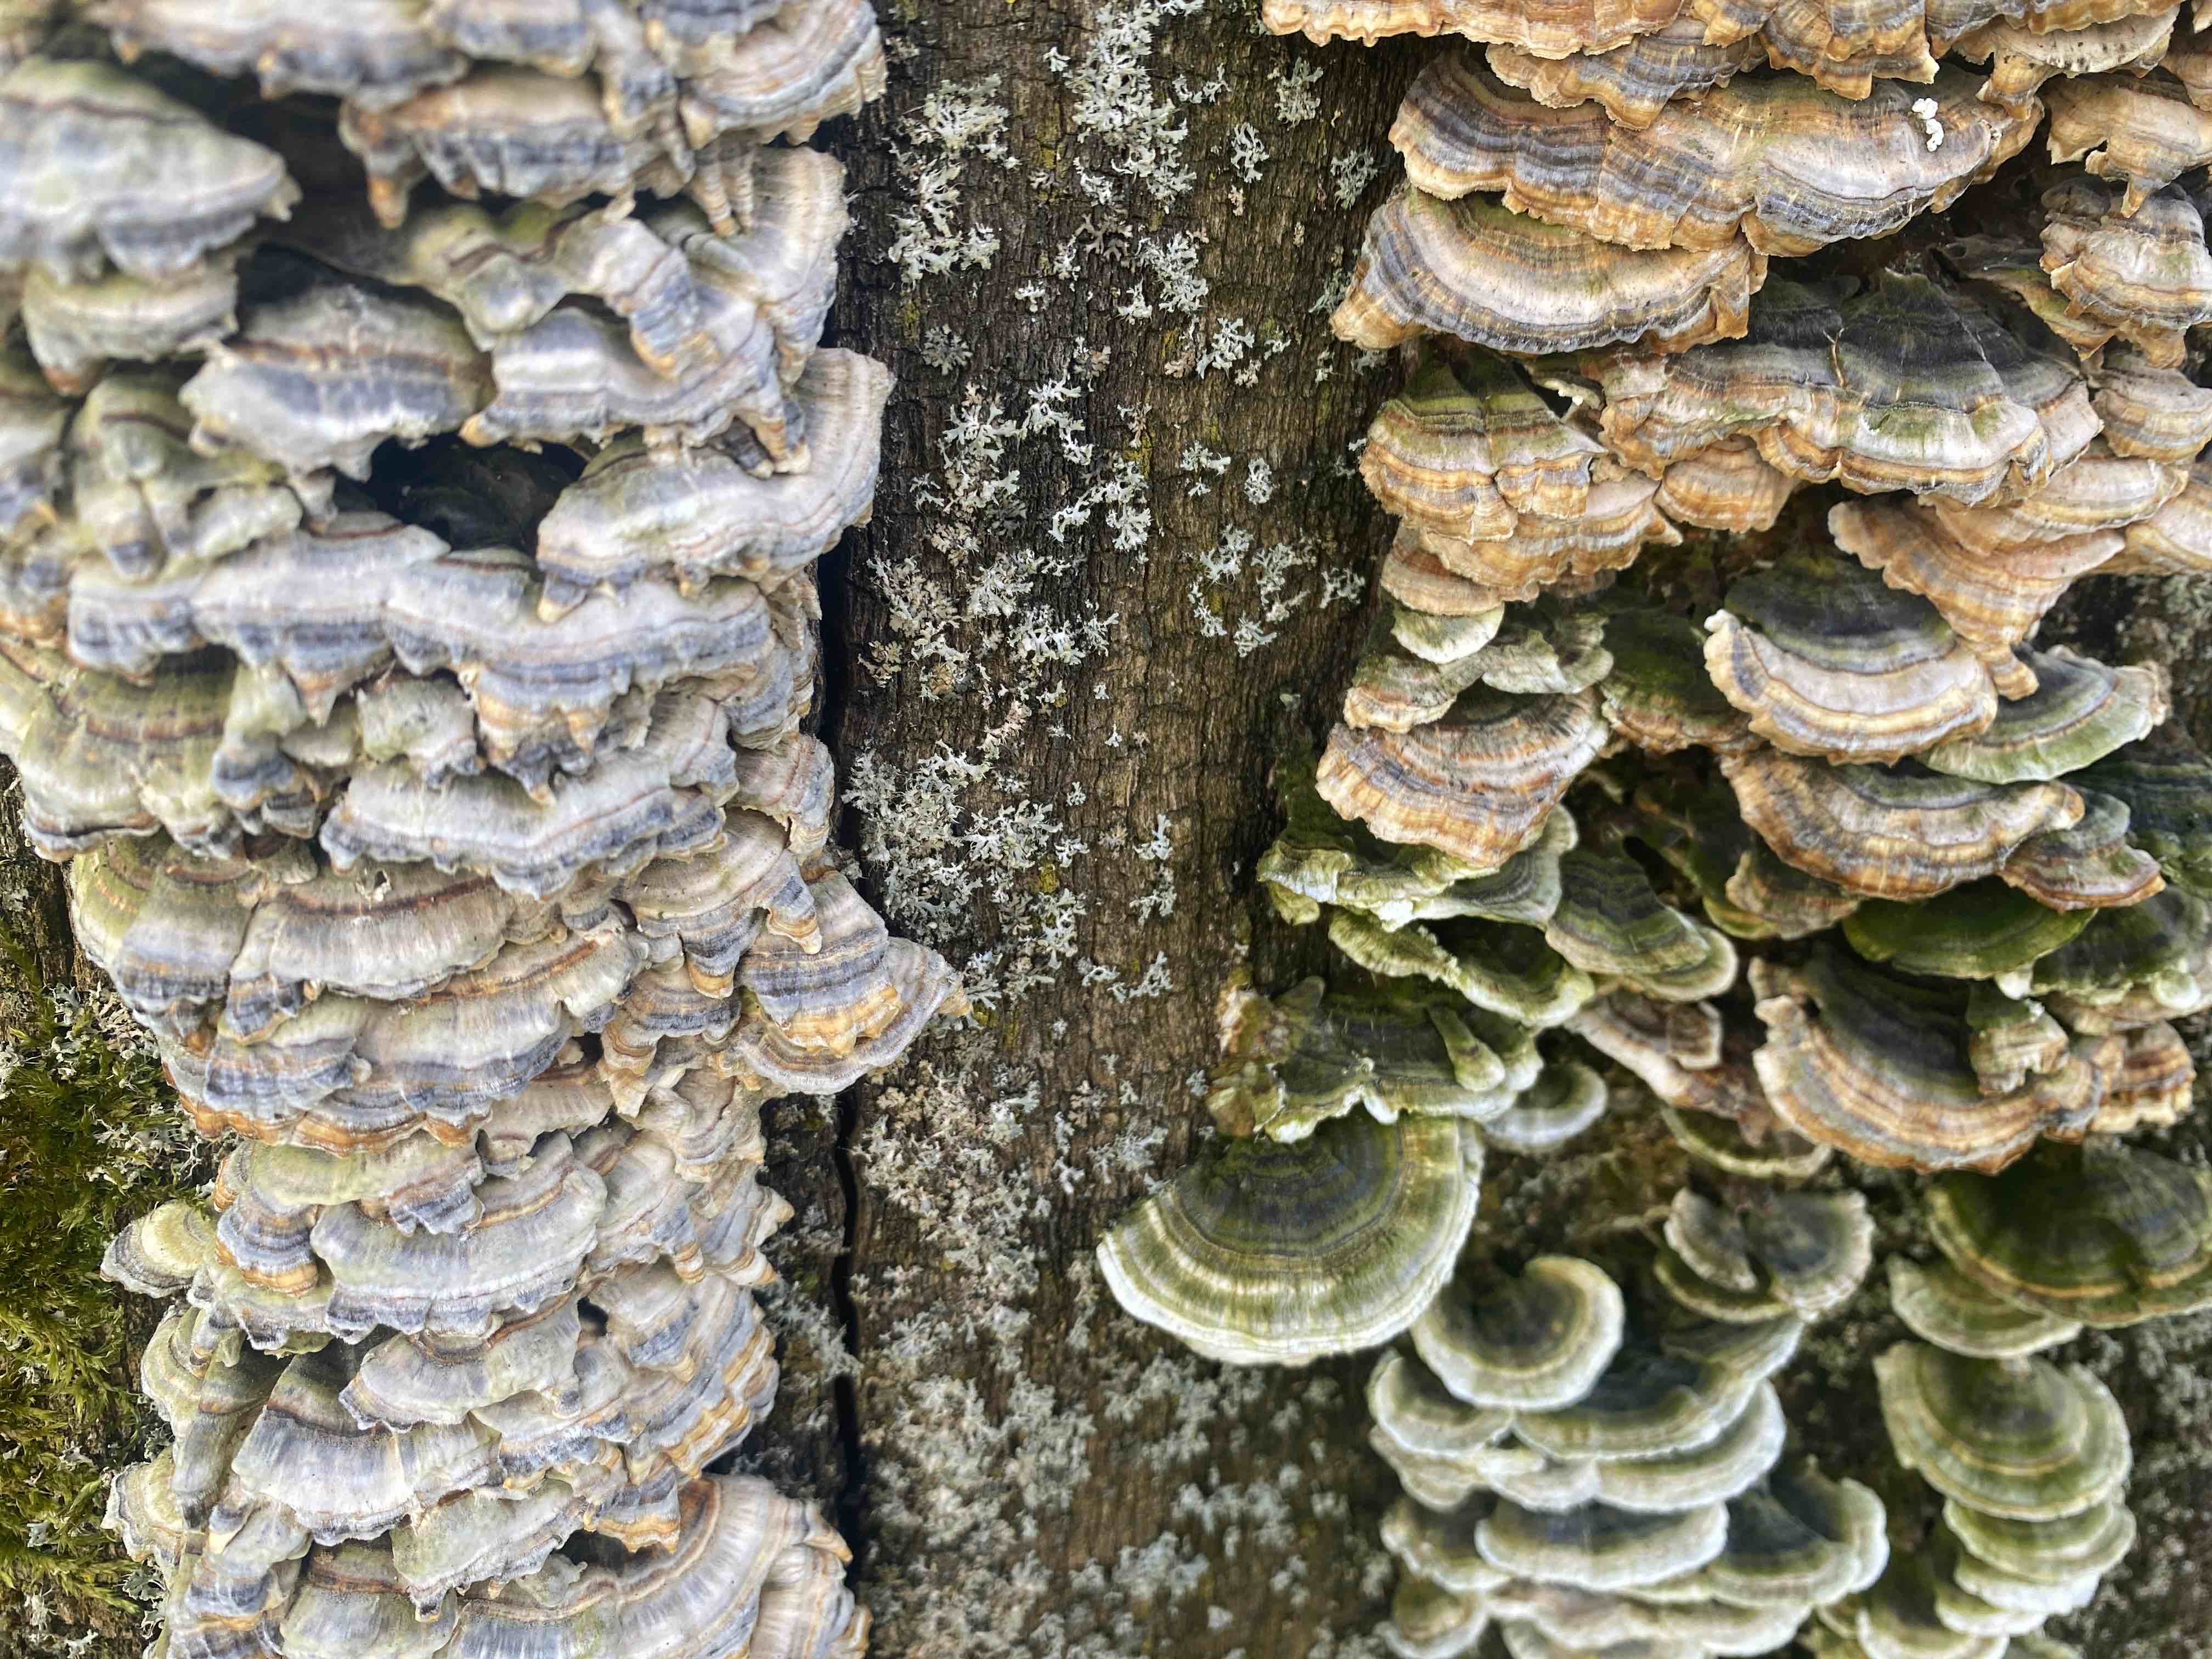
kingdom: Fungi
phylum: Basidiomycota
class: Agaricomycetes
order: Polyporales
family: Polyporaceae
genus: Trametes
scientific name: Trametes versicolor
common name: broget læderporesvamp
